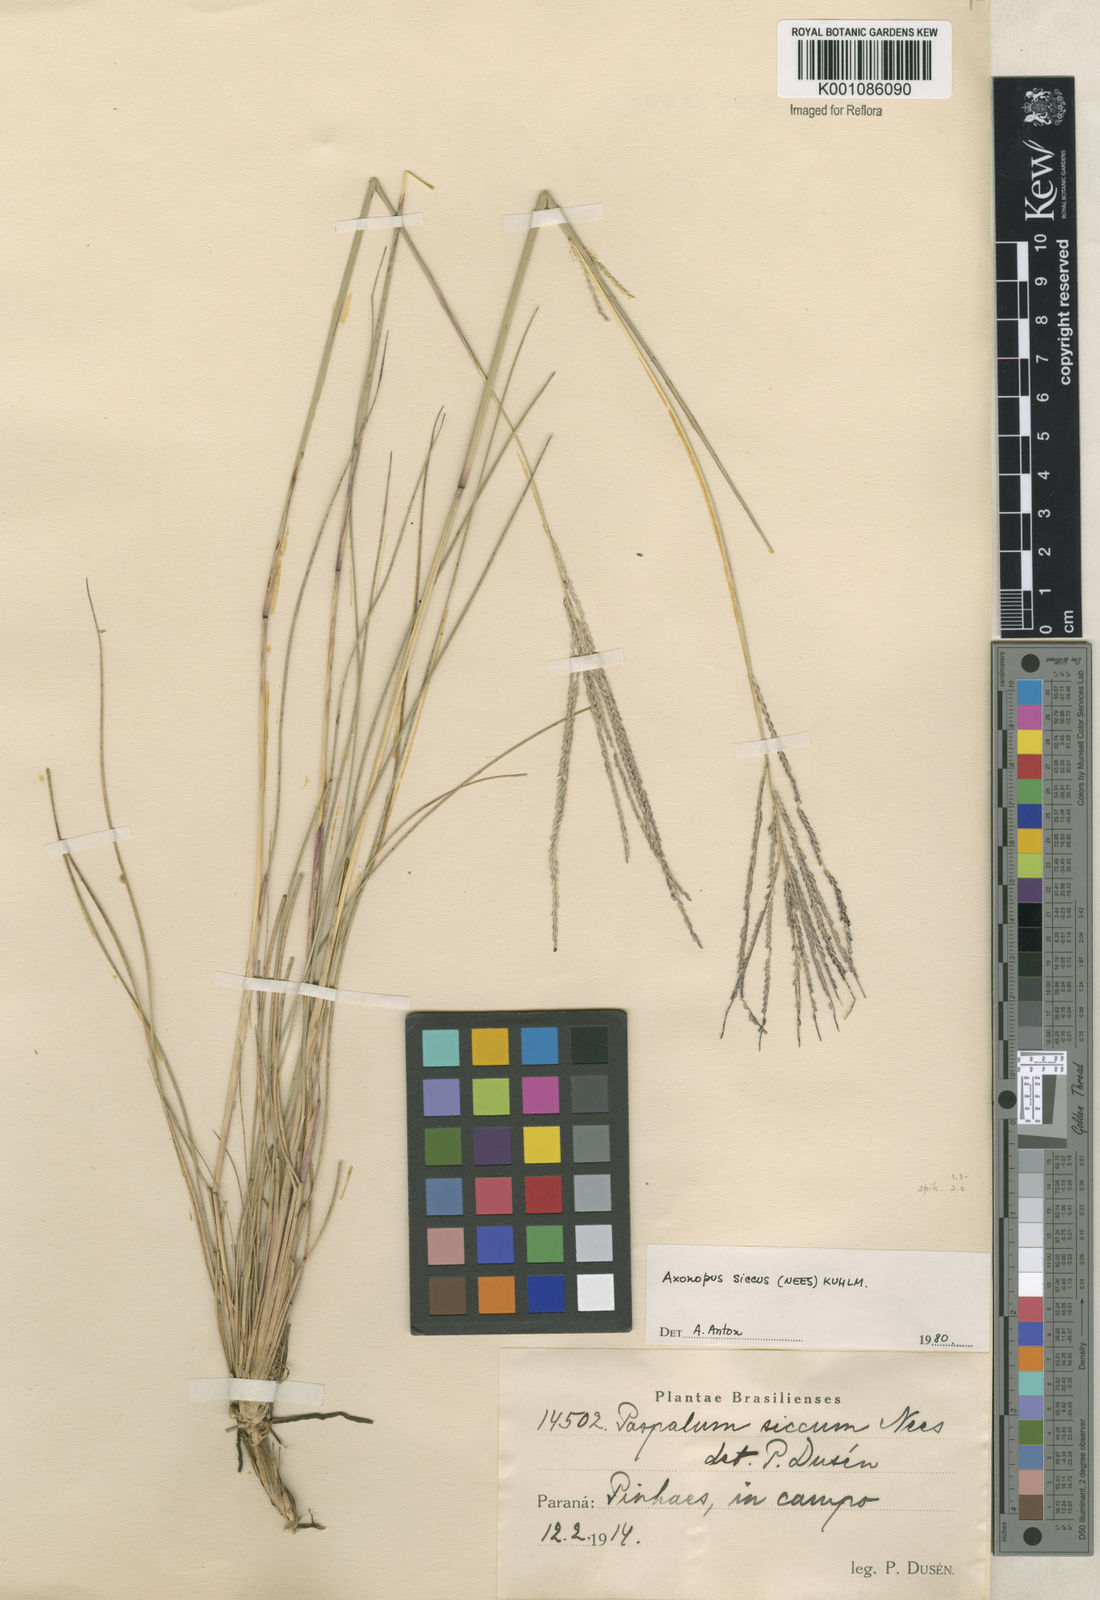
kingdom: Plantae
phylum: Tracheophyta
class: Liliopsida
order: Poales
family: Poaceae
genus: Axonopus
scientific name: Axonopus siccus
